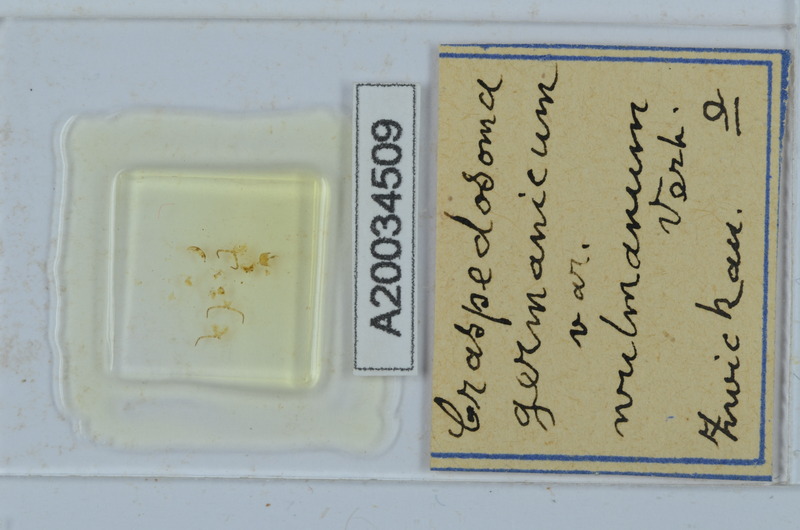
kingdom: Animalia
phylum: Arthropoda
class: Diplopoda
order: Chordeumatida
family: Craspedosomatidae
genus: Craspedosoma
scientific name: Craspedosoma rawlinsii
